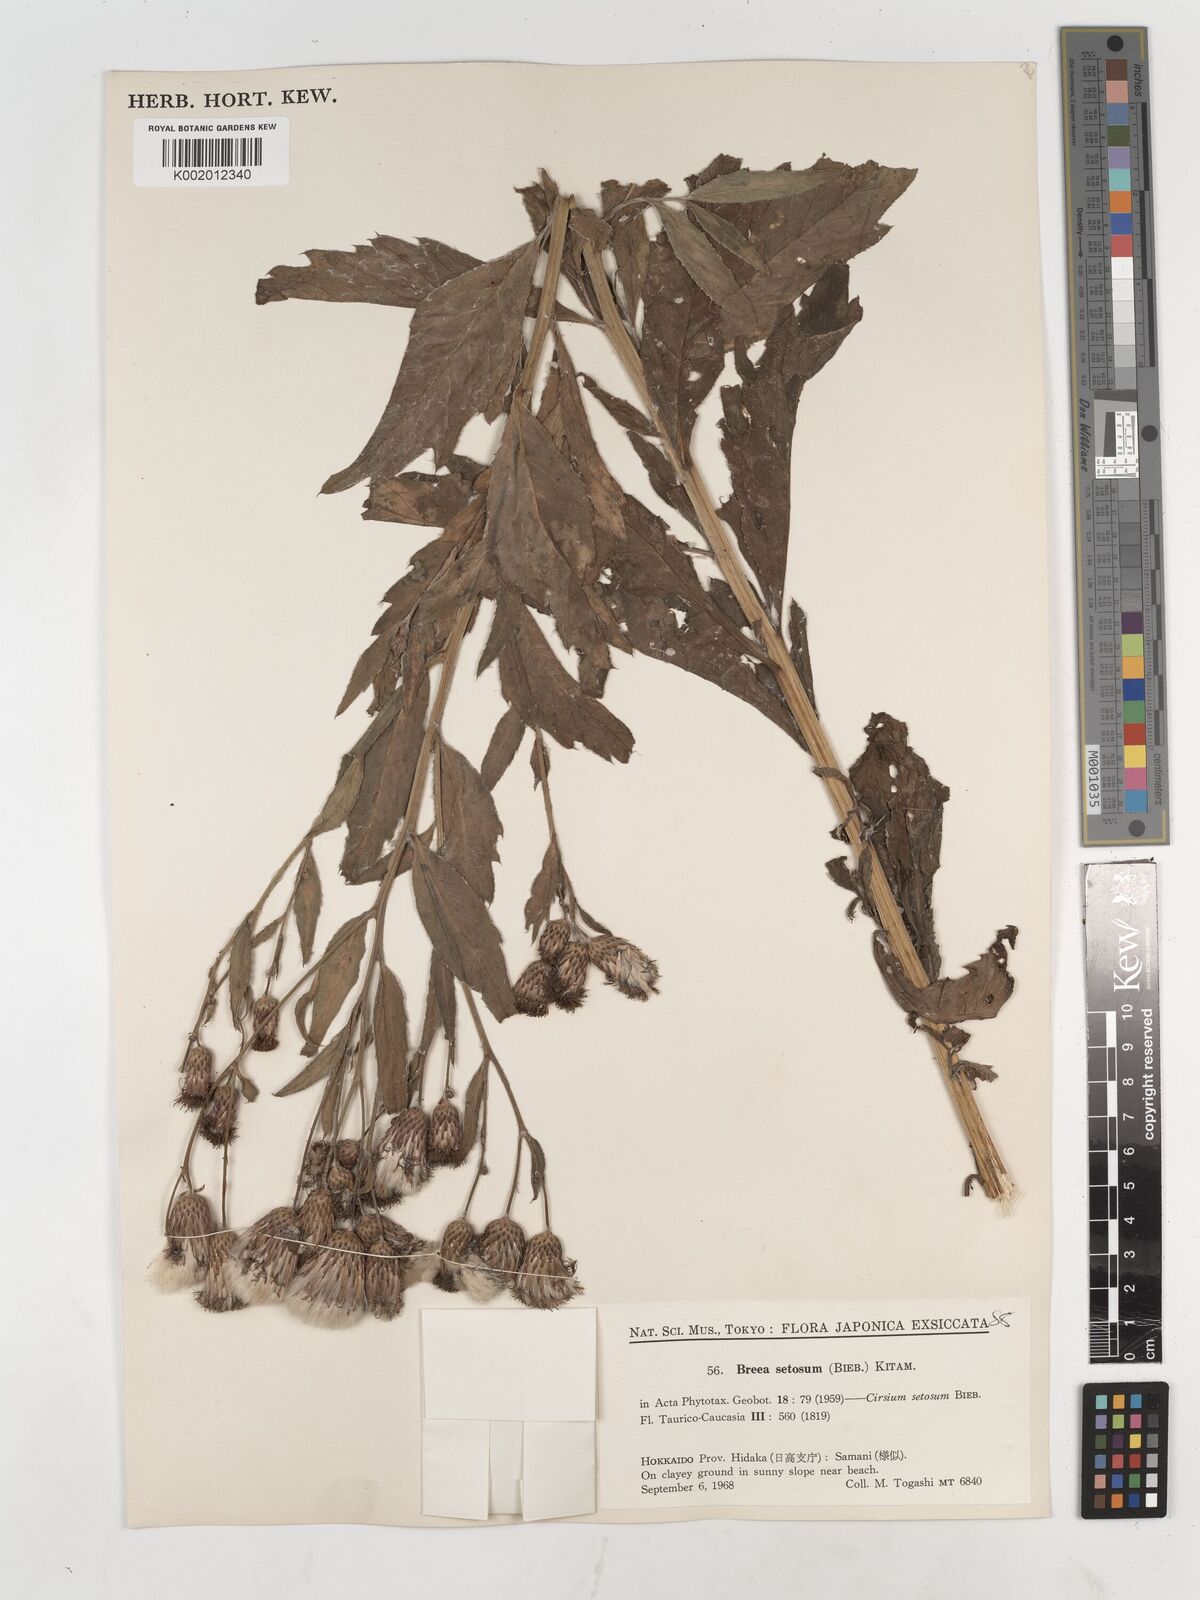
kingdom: Plantae
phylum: Tracheophyta
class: Magnoliopsida
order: Asterales
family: Asteraceae
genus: Cirsium
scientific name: Cirsium arvense
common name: Creeping thistle
